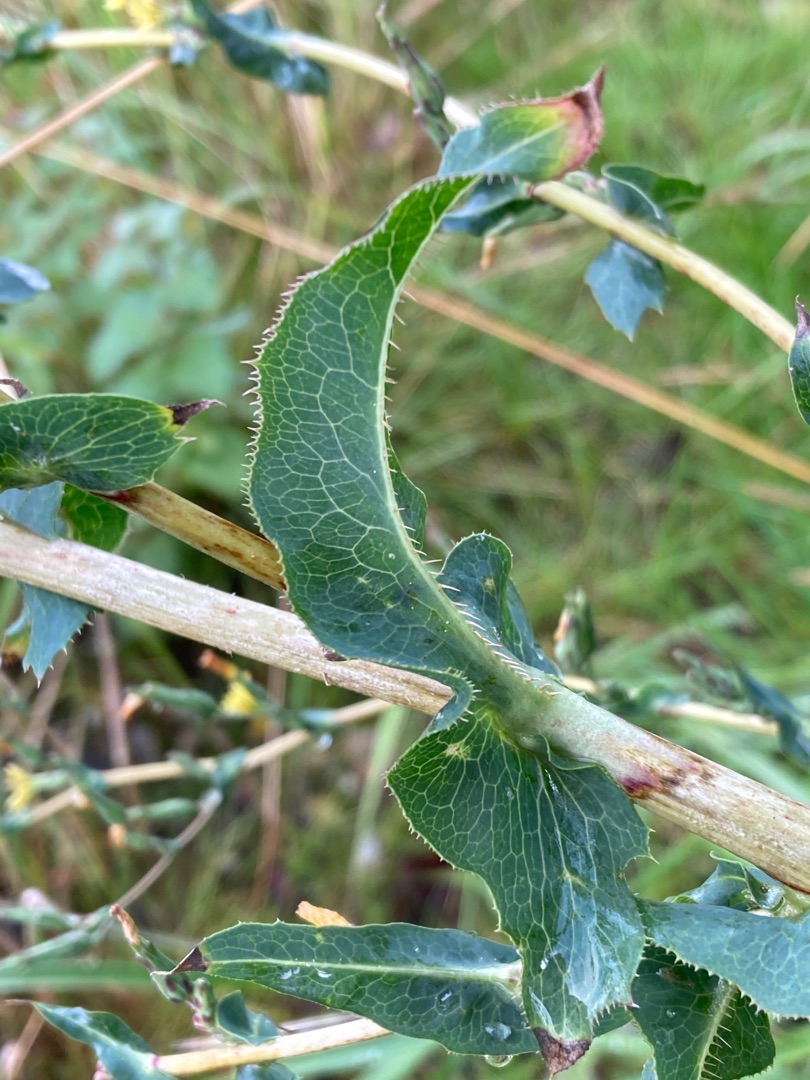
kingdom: Plantae
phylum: Tracheophyta
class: Magnoliopsida
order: Asterales
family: Asteraceae
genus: Lactuca
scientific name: Lactuca serriola
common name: Tornet salat
